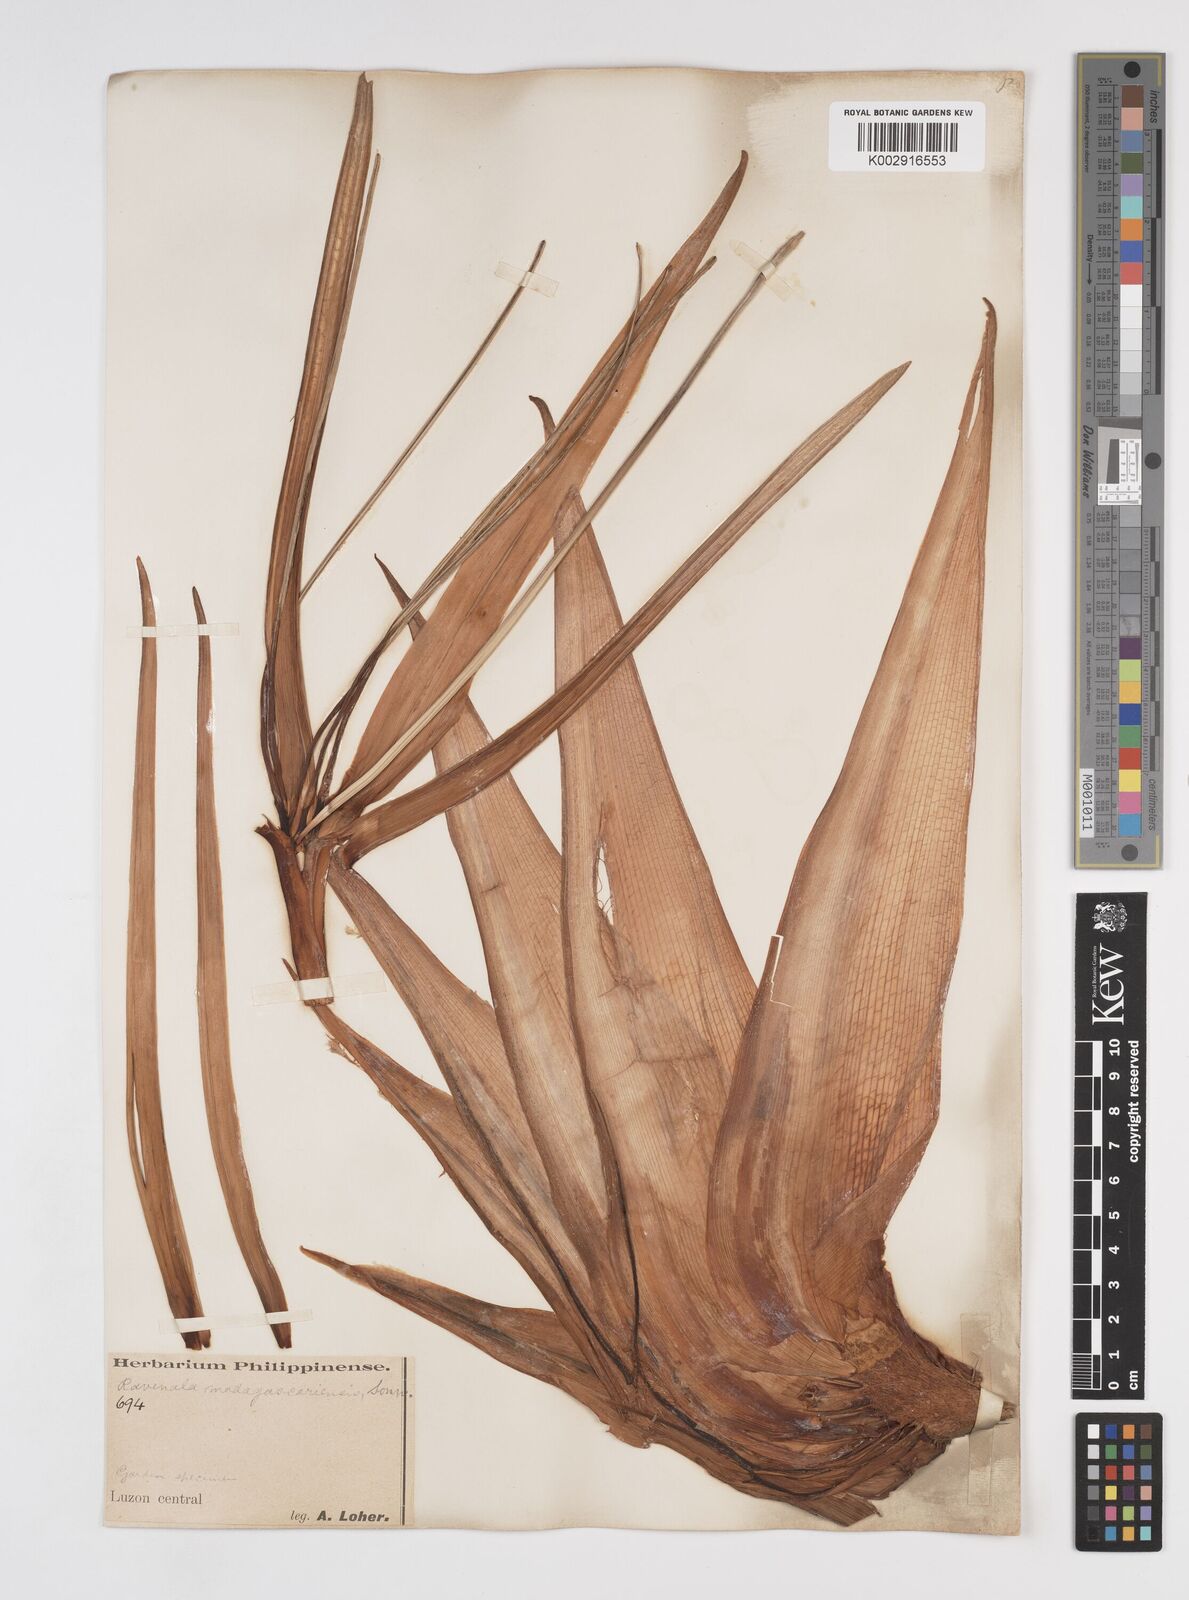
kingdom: Plantae
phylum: Tracheophyta
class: Liliopsida
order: Zingiberales
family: Strelitziaceae
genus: Ravenala
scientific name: Ravenala
